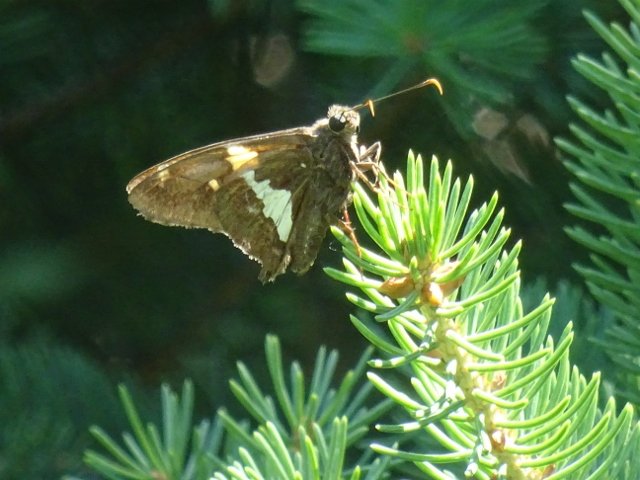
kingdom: Animalia
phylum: Arthropoda
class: Insecta
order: Lepidoptera
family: Hesperiidae
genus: Epargyreus
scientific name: Epargyreus clarus
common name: Silver-spotted Skipper
